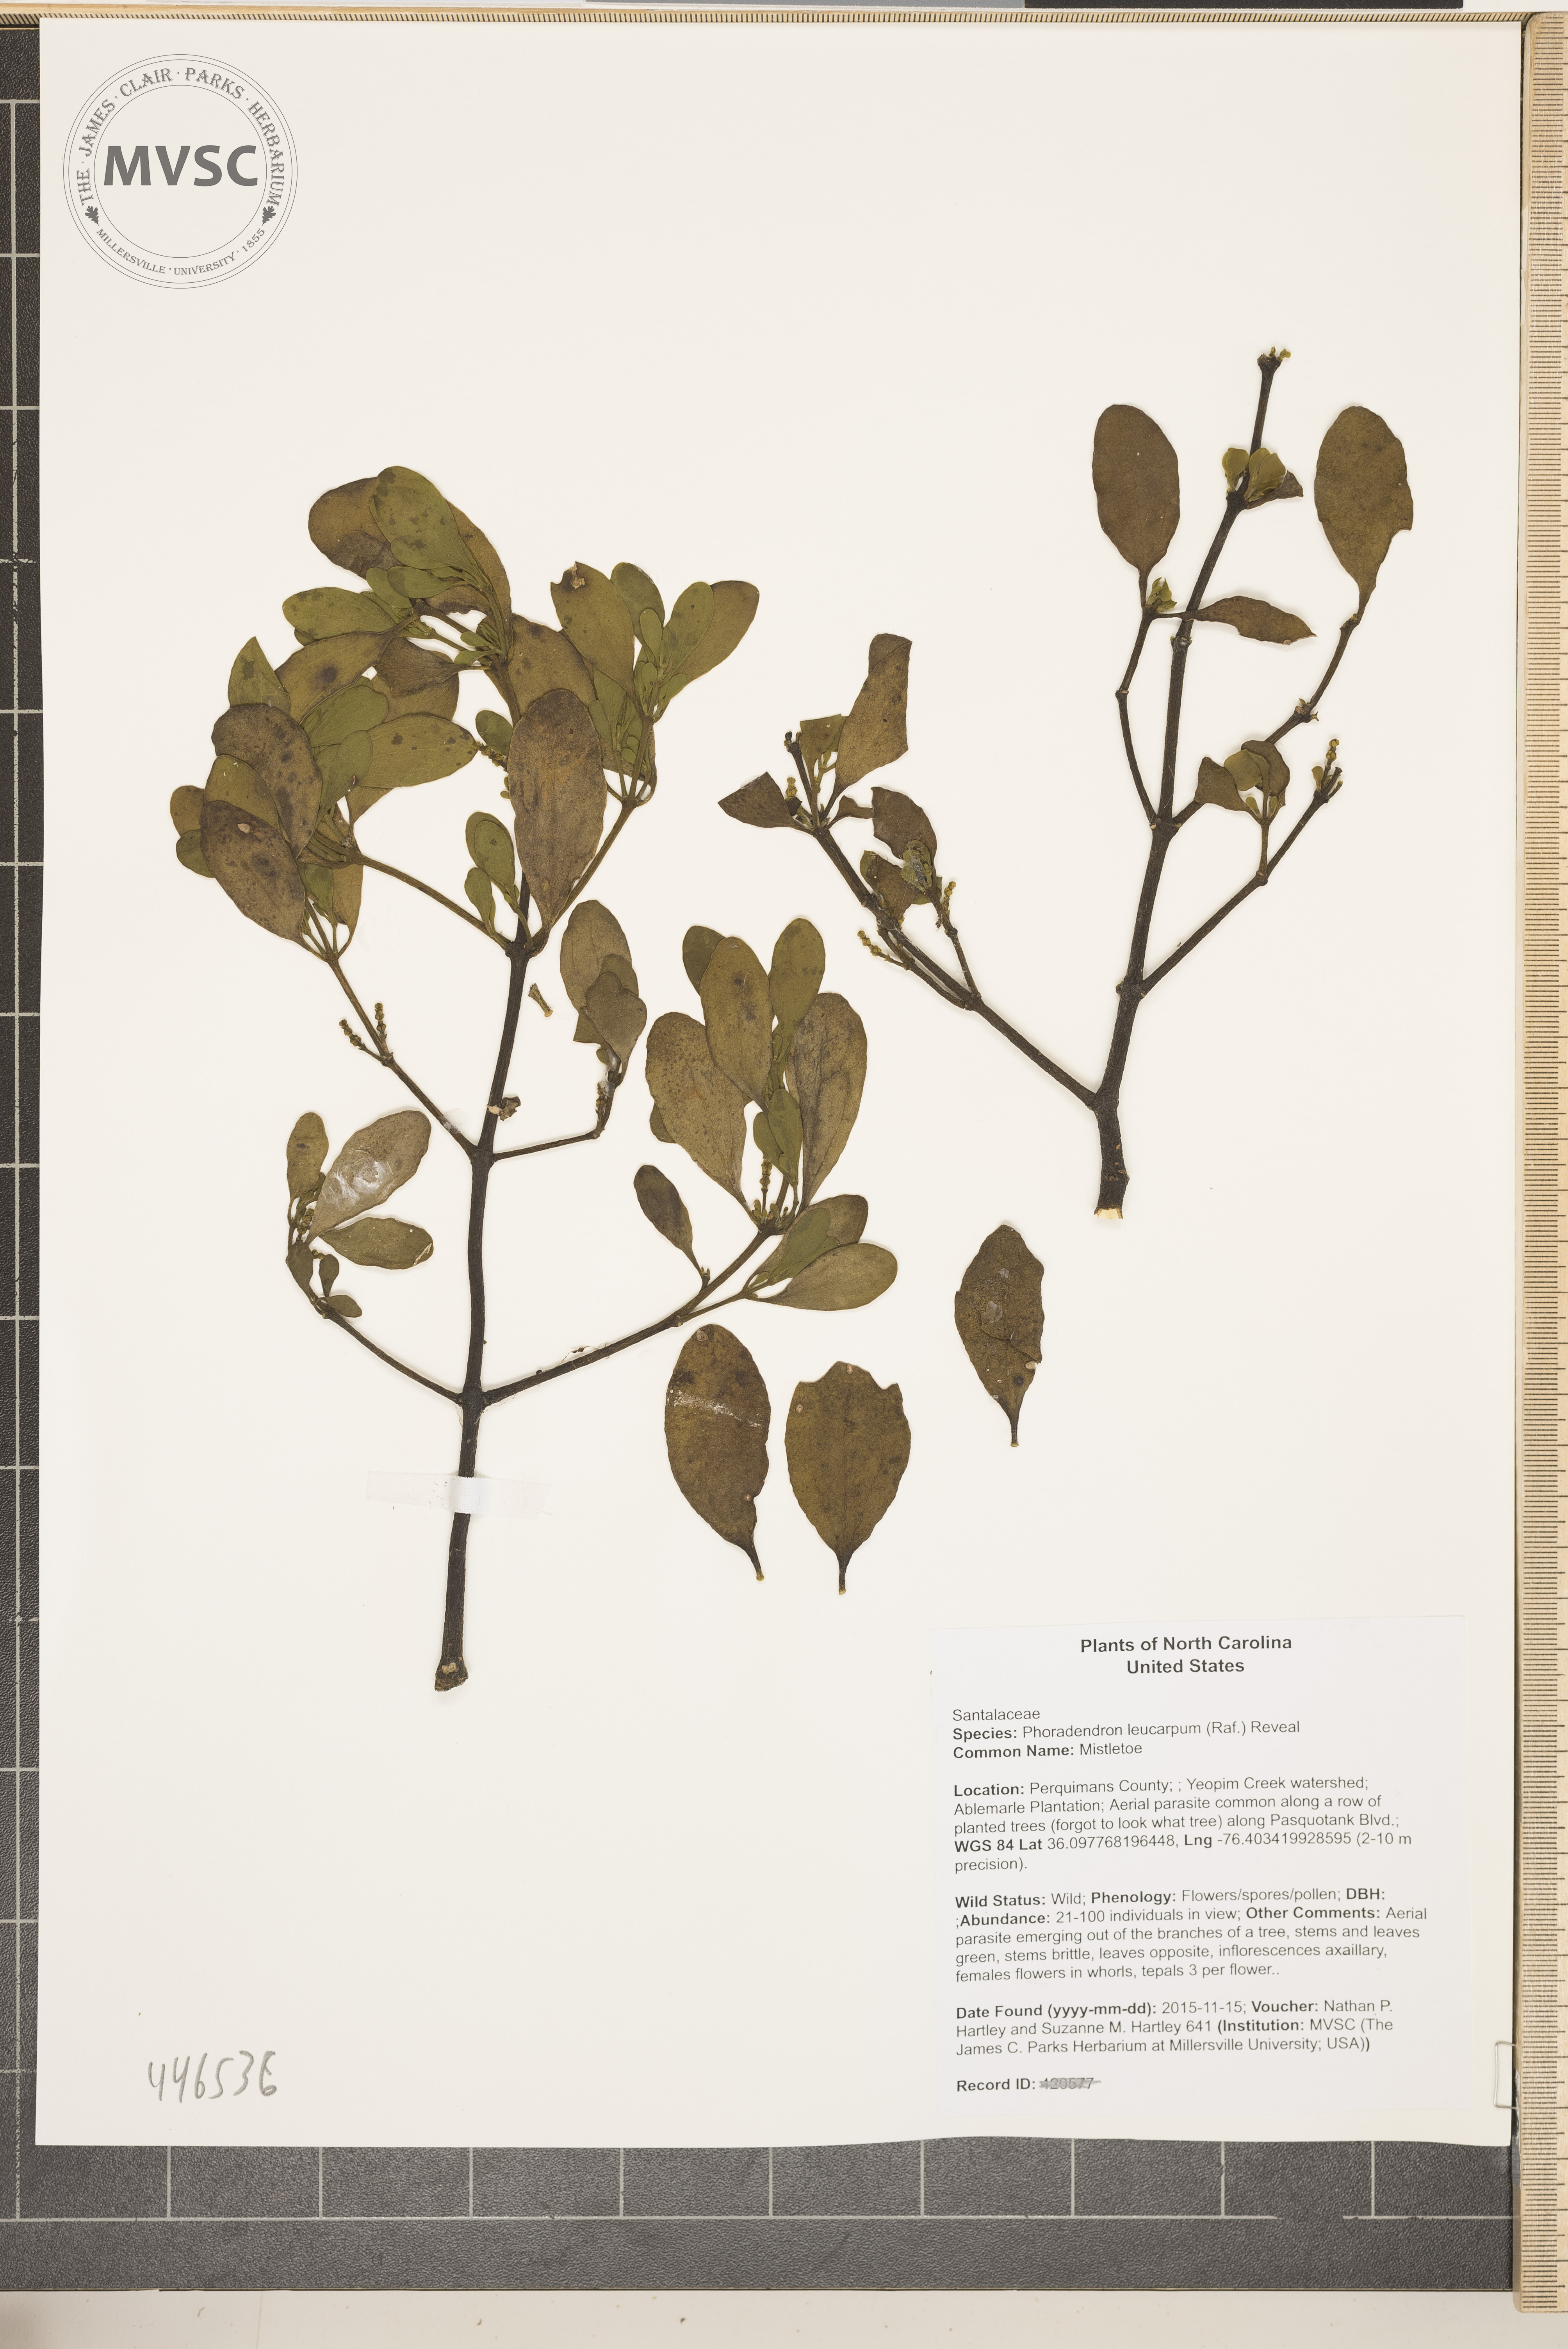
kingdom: Plantae
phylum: Tracheophyta
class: Magnoliopsida
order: Santalales
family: Viscaceae
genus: Phoradendron
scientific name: Phoradendron leucarpum
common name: Mistletoe
